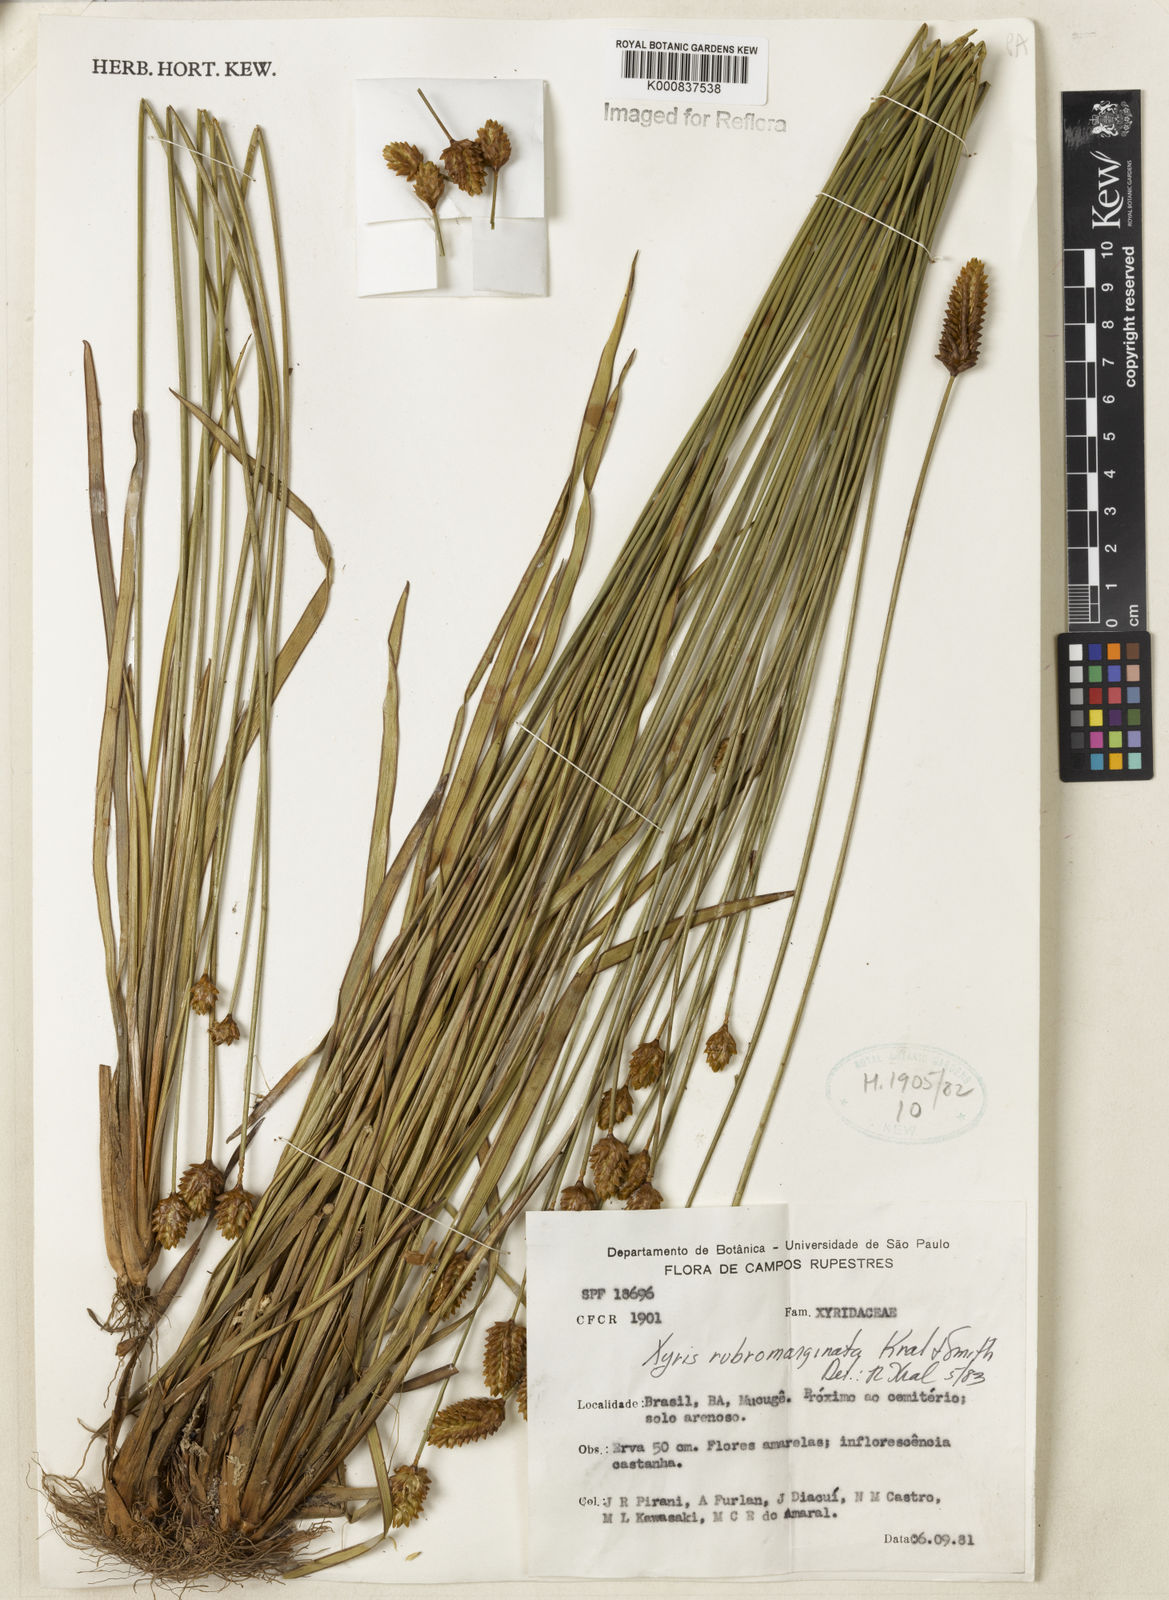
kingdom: Plantae
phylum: Tracheophyta
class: Liliopsida
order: Poales
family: Xyridaceae
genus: Xyris
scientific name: Xyris rubromarginata
